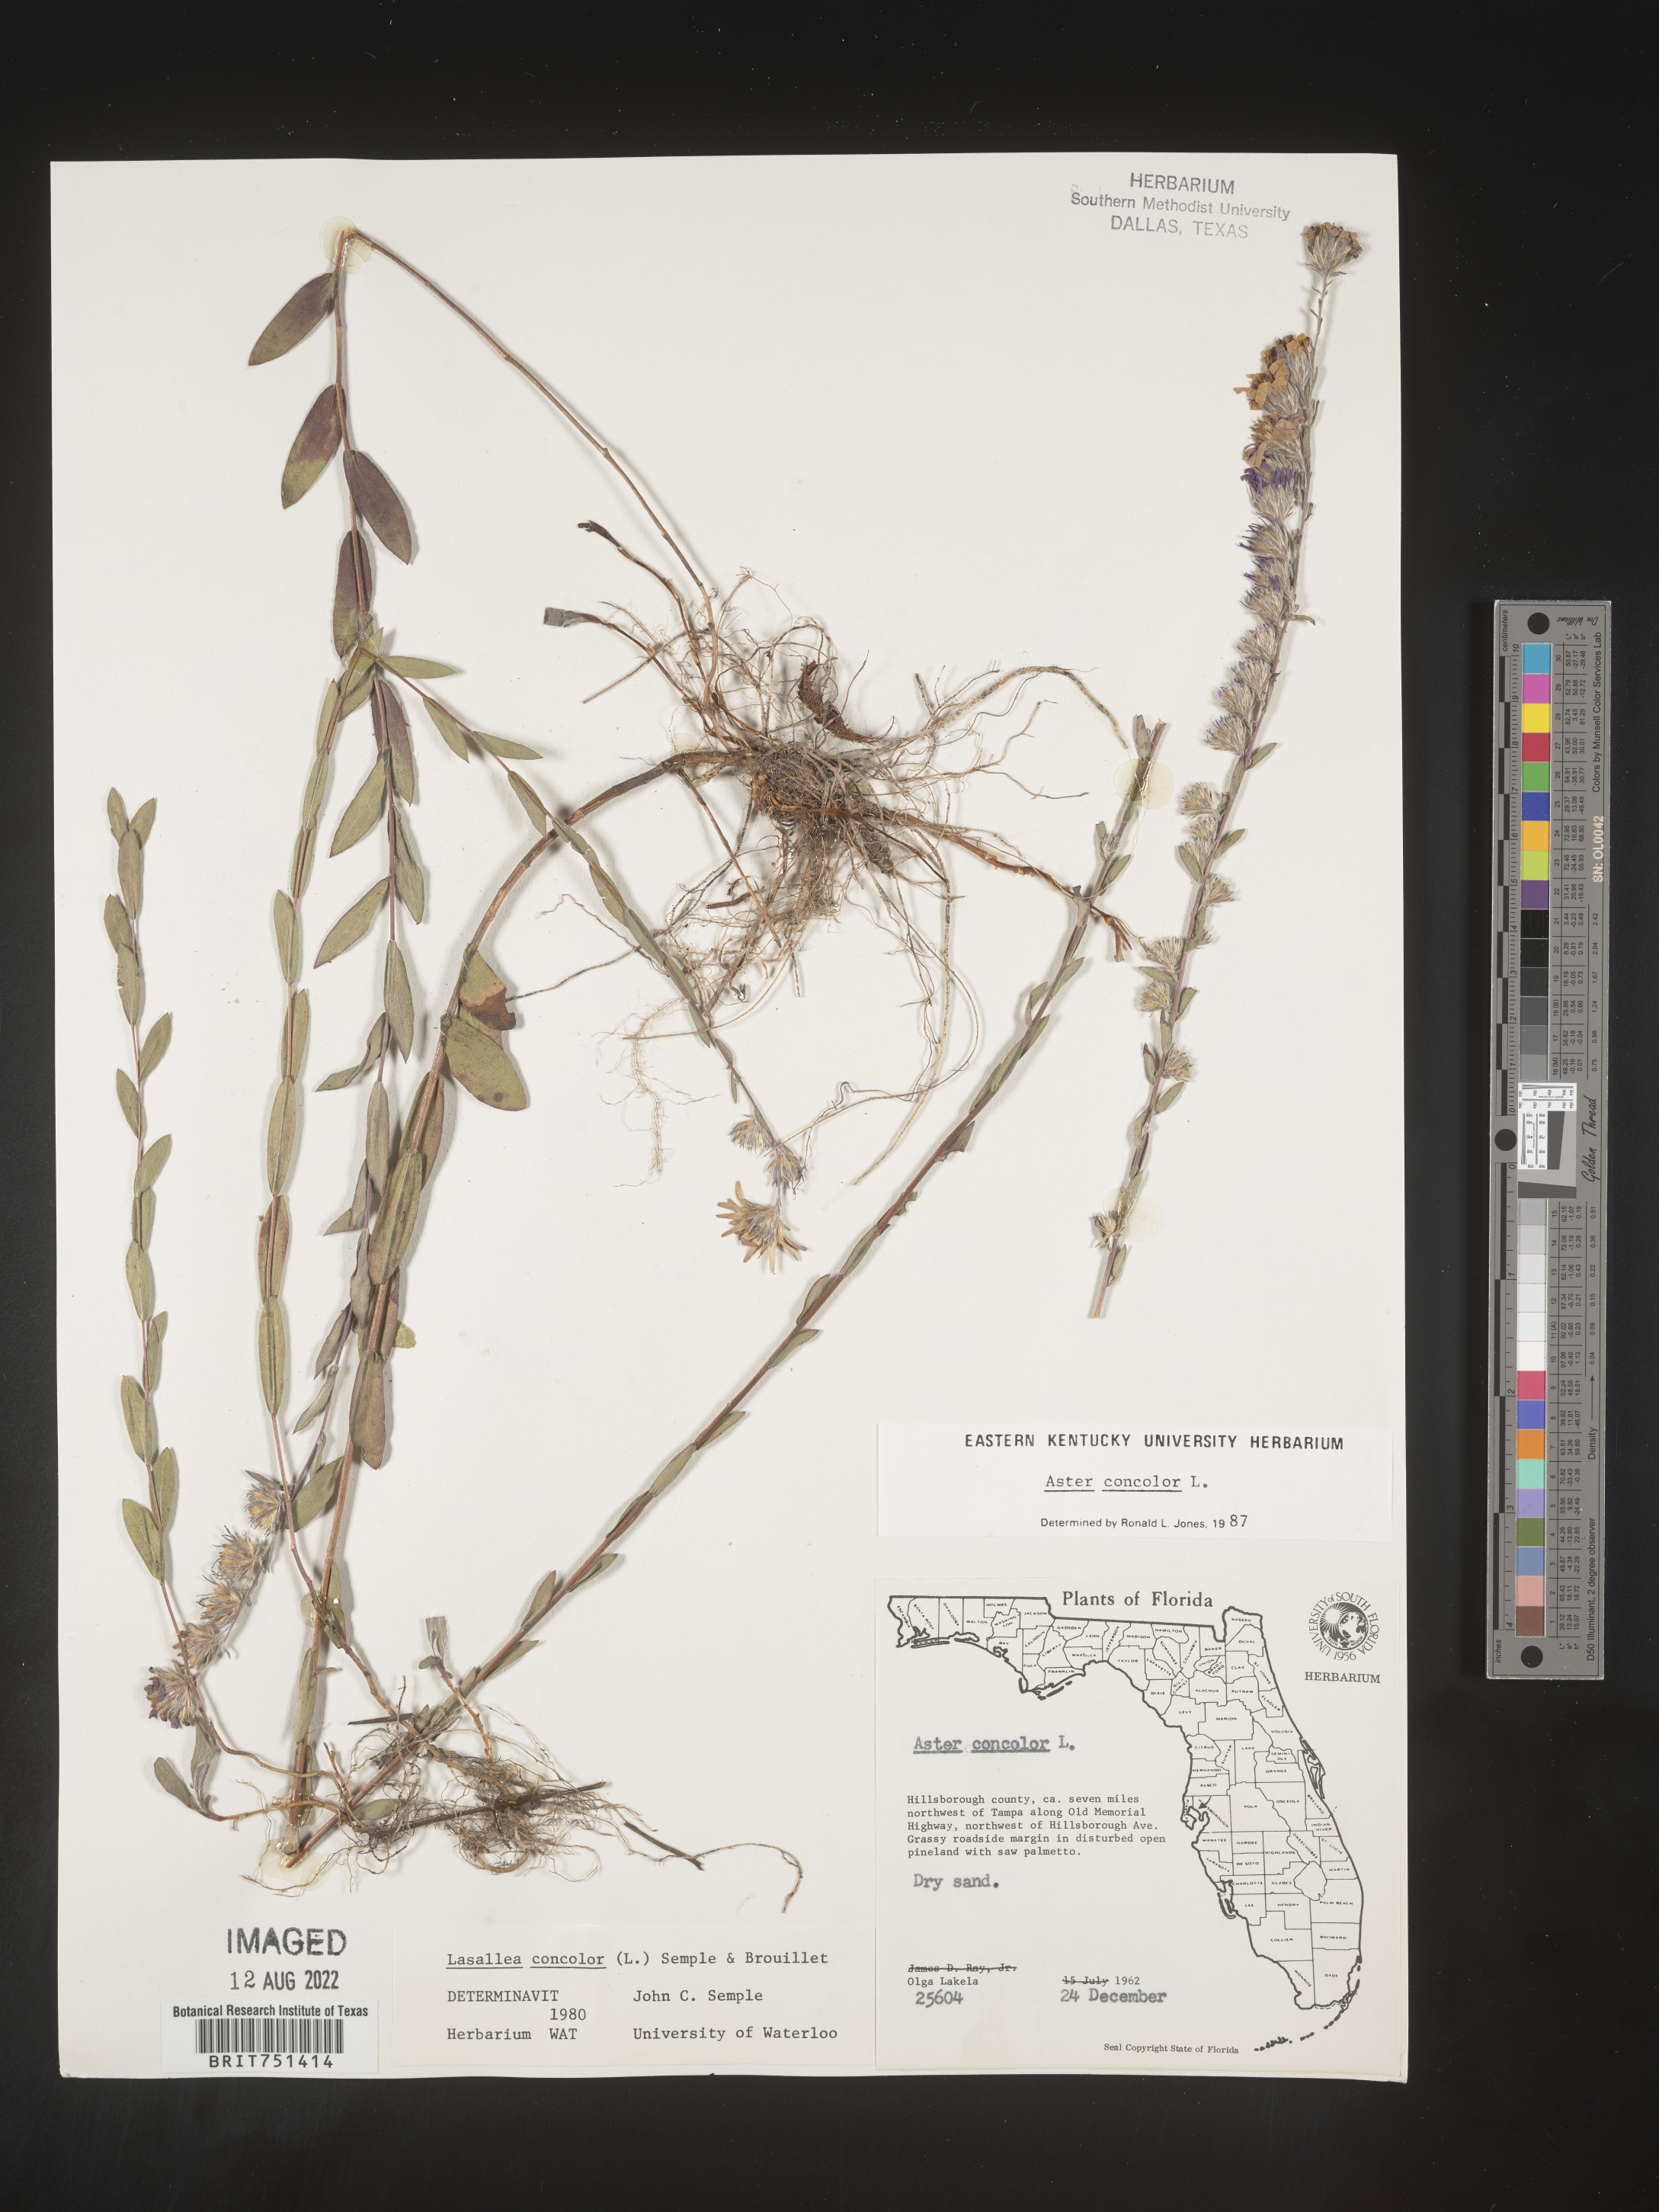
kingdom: Plantae
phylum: Tracheophyta
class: Magnoliopsida
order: Asterales
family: Asteraceae
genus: Symphyotrichum
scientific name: Symphyotrichum concolor
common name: Eastern silver aster
